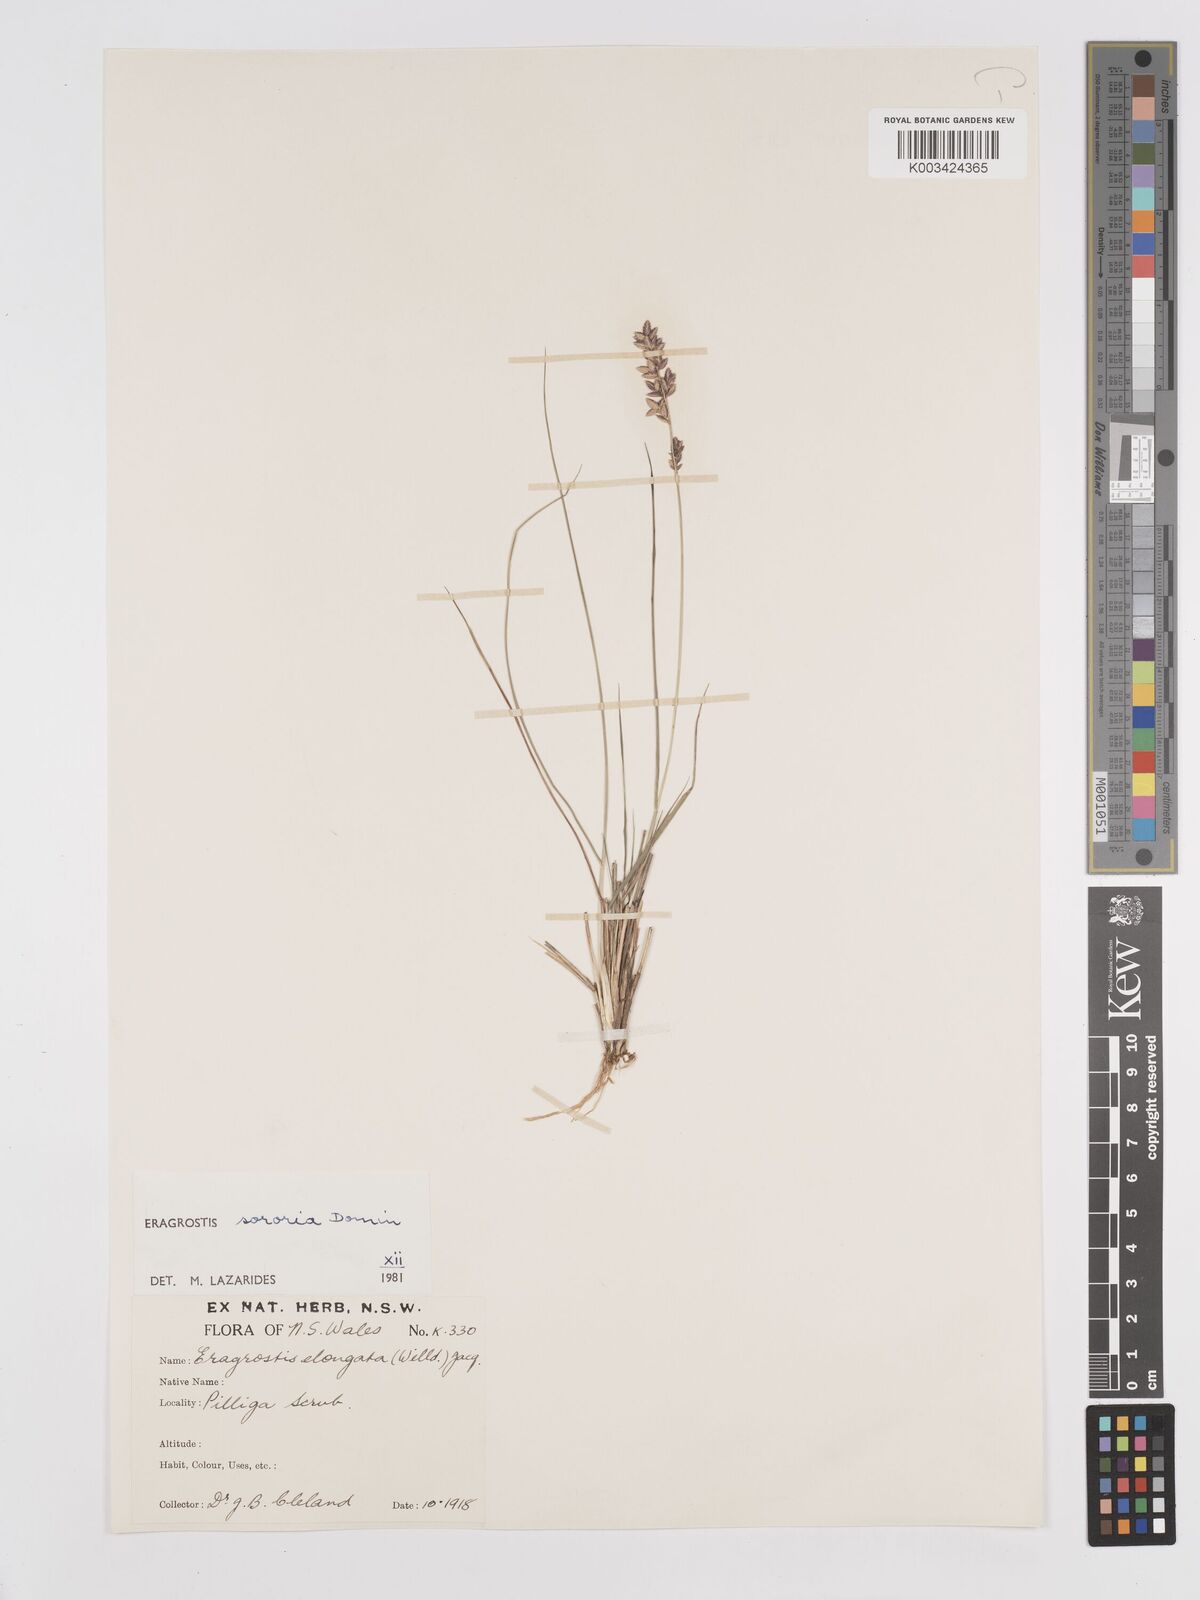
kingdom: Plantae
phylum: Tracheophyta
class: Liliopsida
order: Poales
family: Poaceae
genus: Eragrostis
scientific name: Eragrostis sororia
